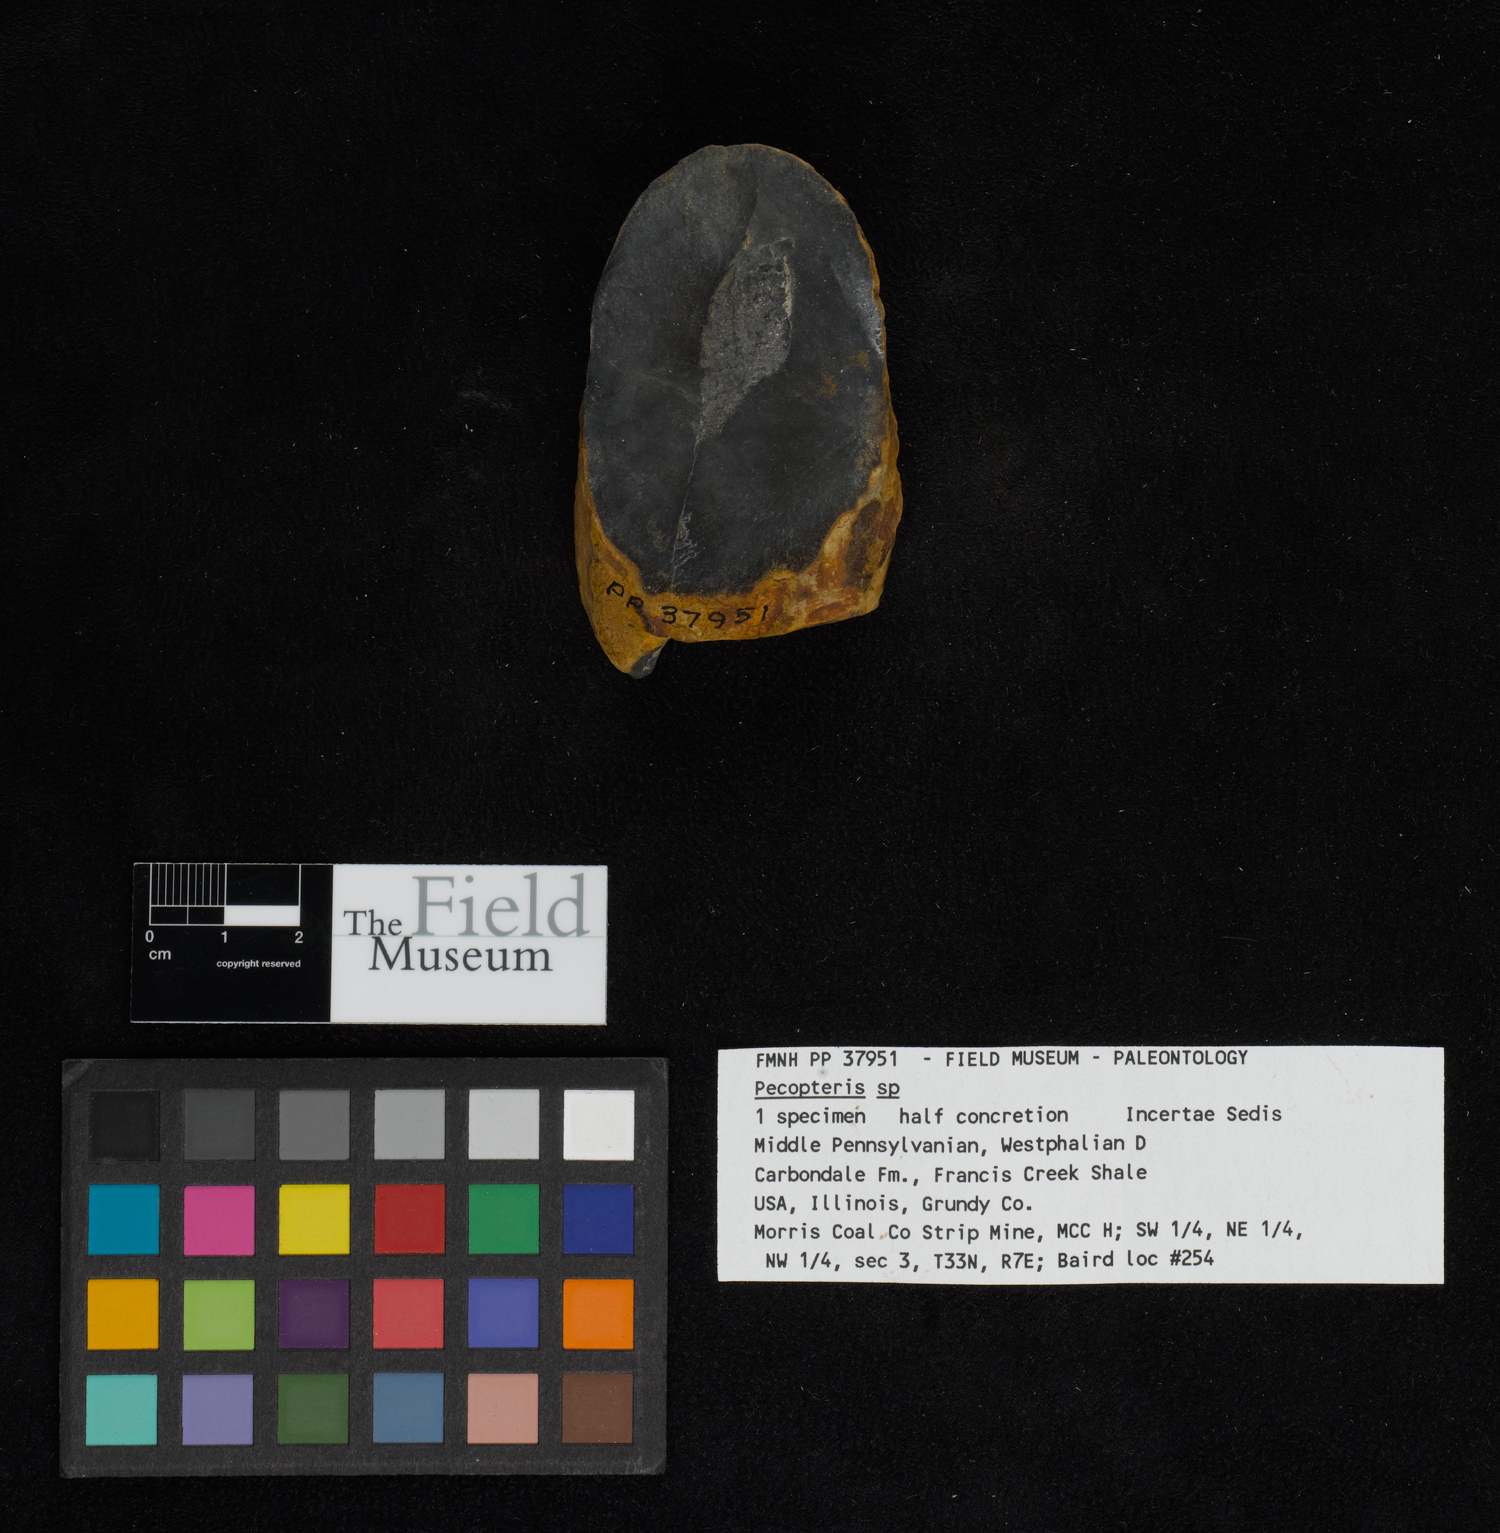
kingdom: Plantae
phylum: Tracheophyta
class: Polypodiopsida
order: Marattiales
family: Asterothecaceae
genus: Pecopteris
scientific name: Pecopteris
